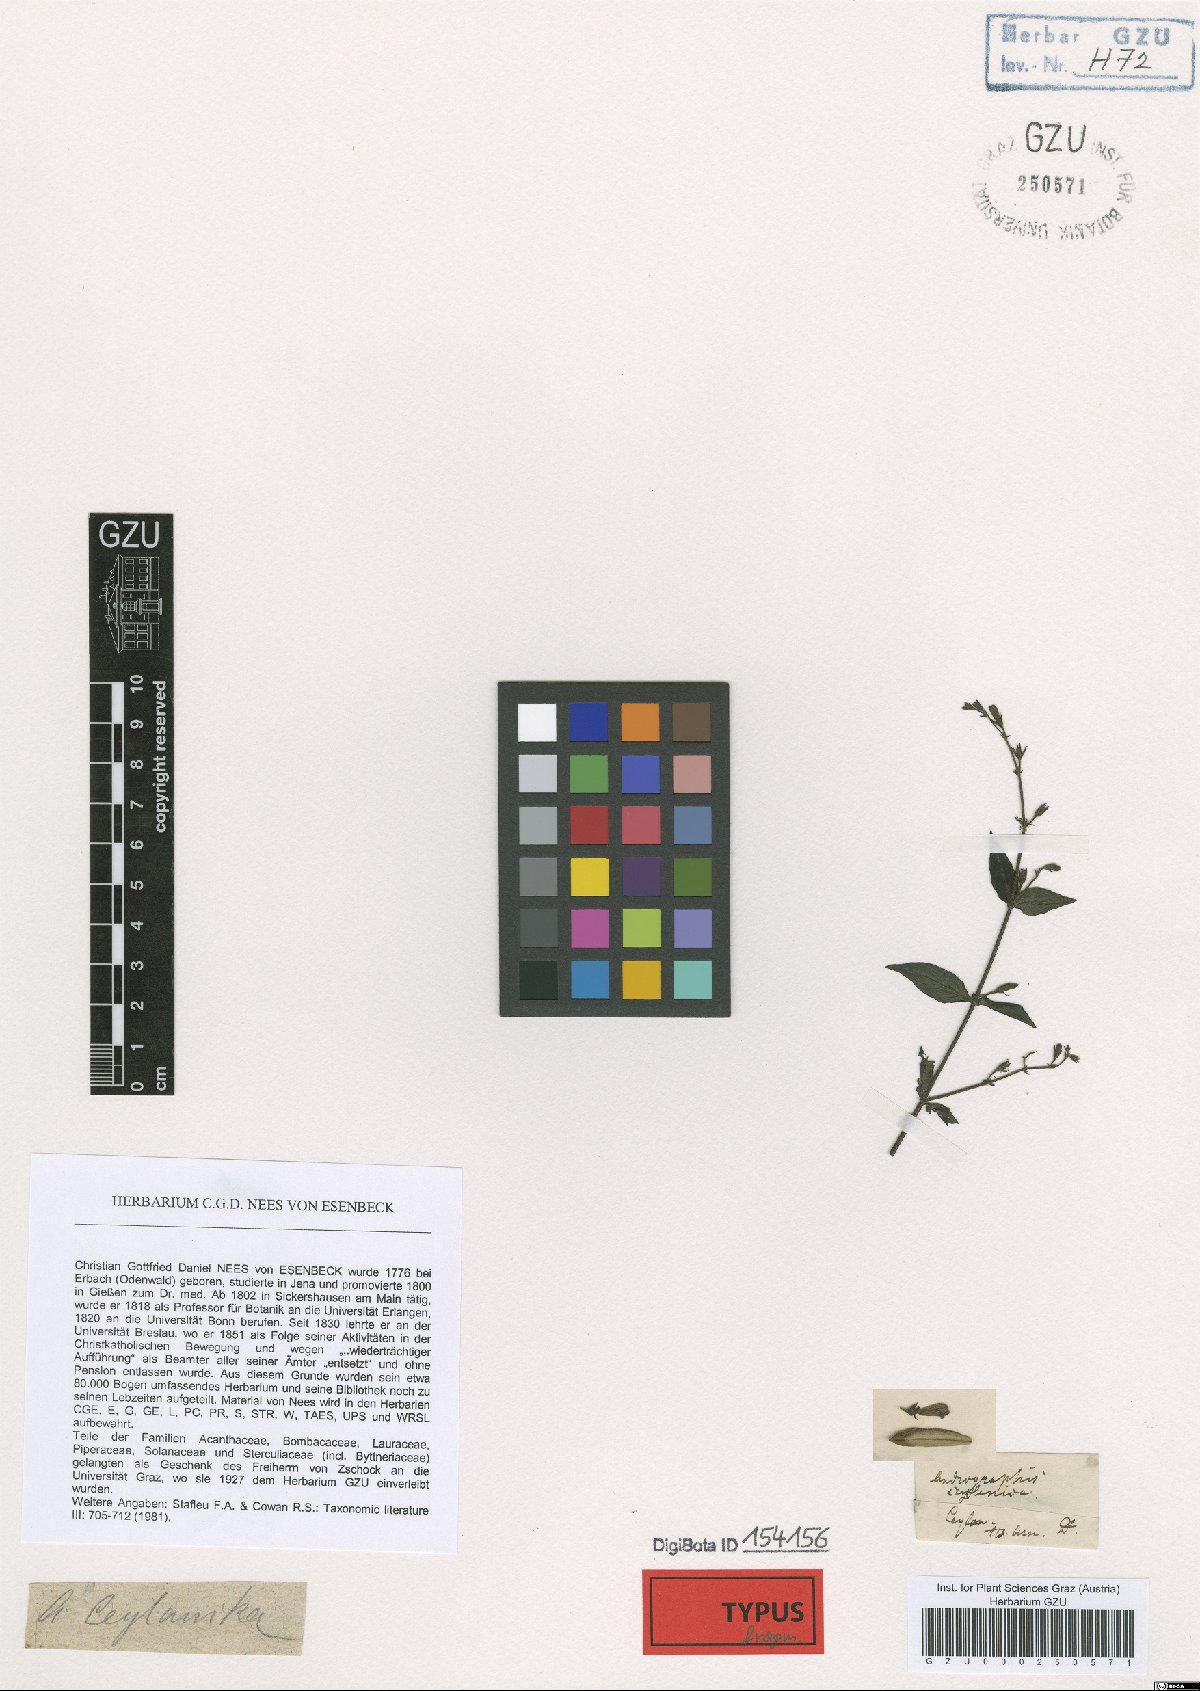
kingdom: Plantae
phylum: Tracheophyta
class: Magnoliopsida
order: Lamiales
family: Acanthaceae
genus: Andrographis
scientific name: Andrographis ceylanica
